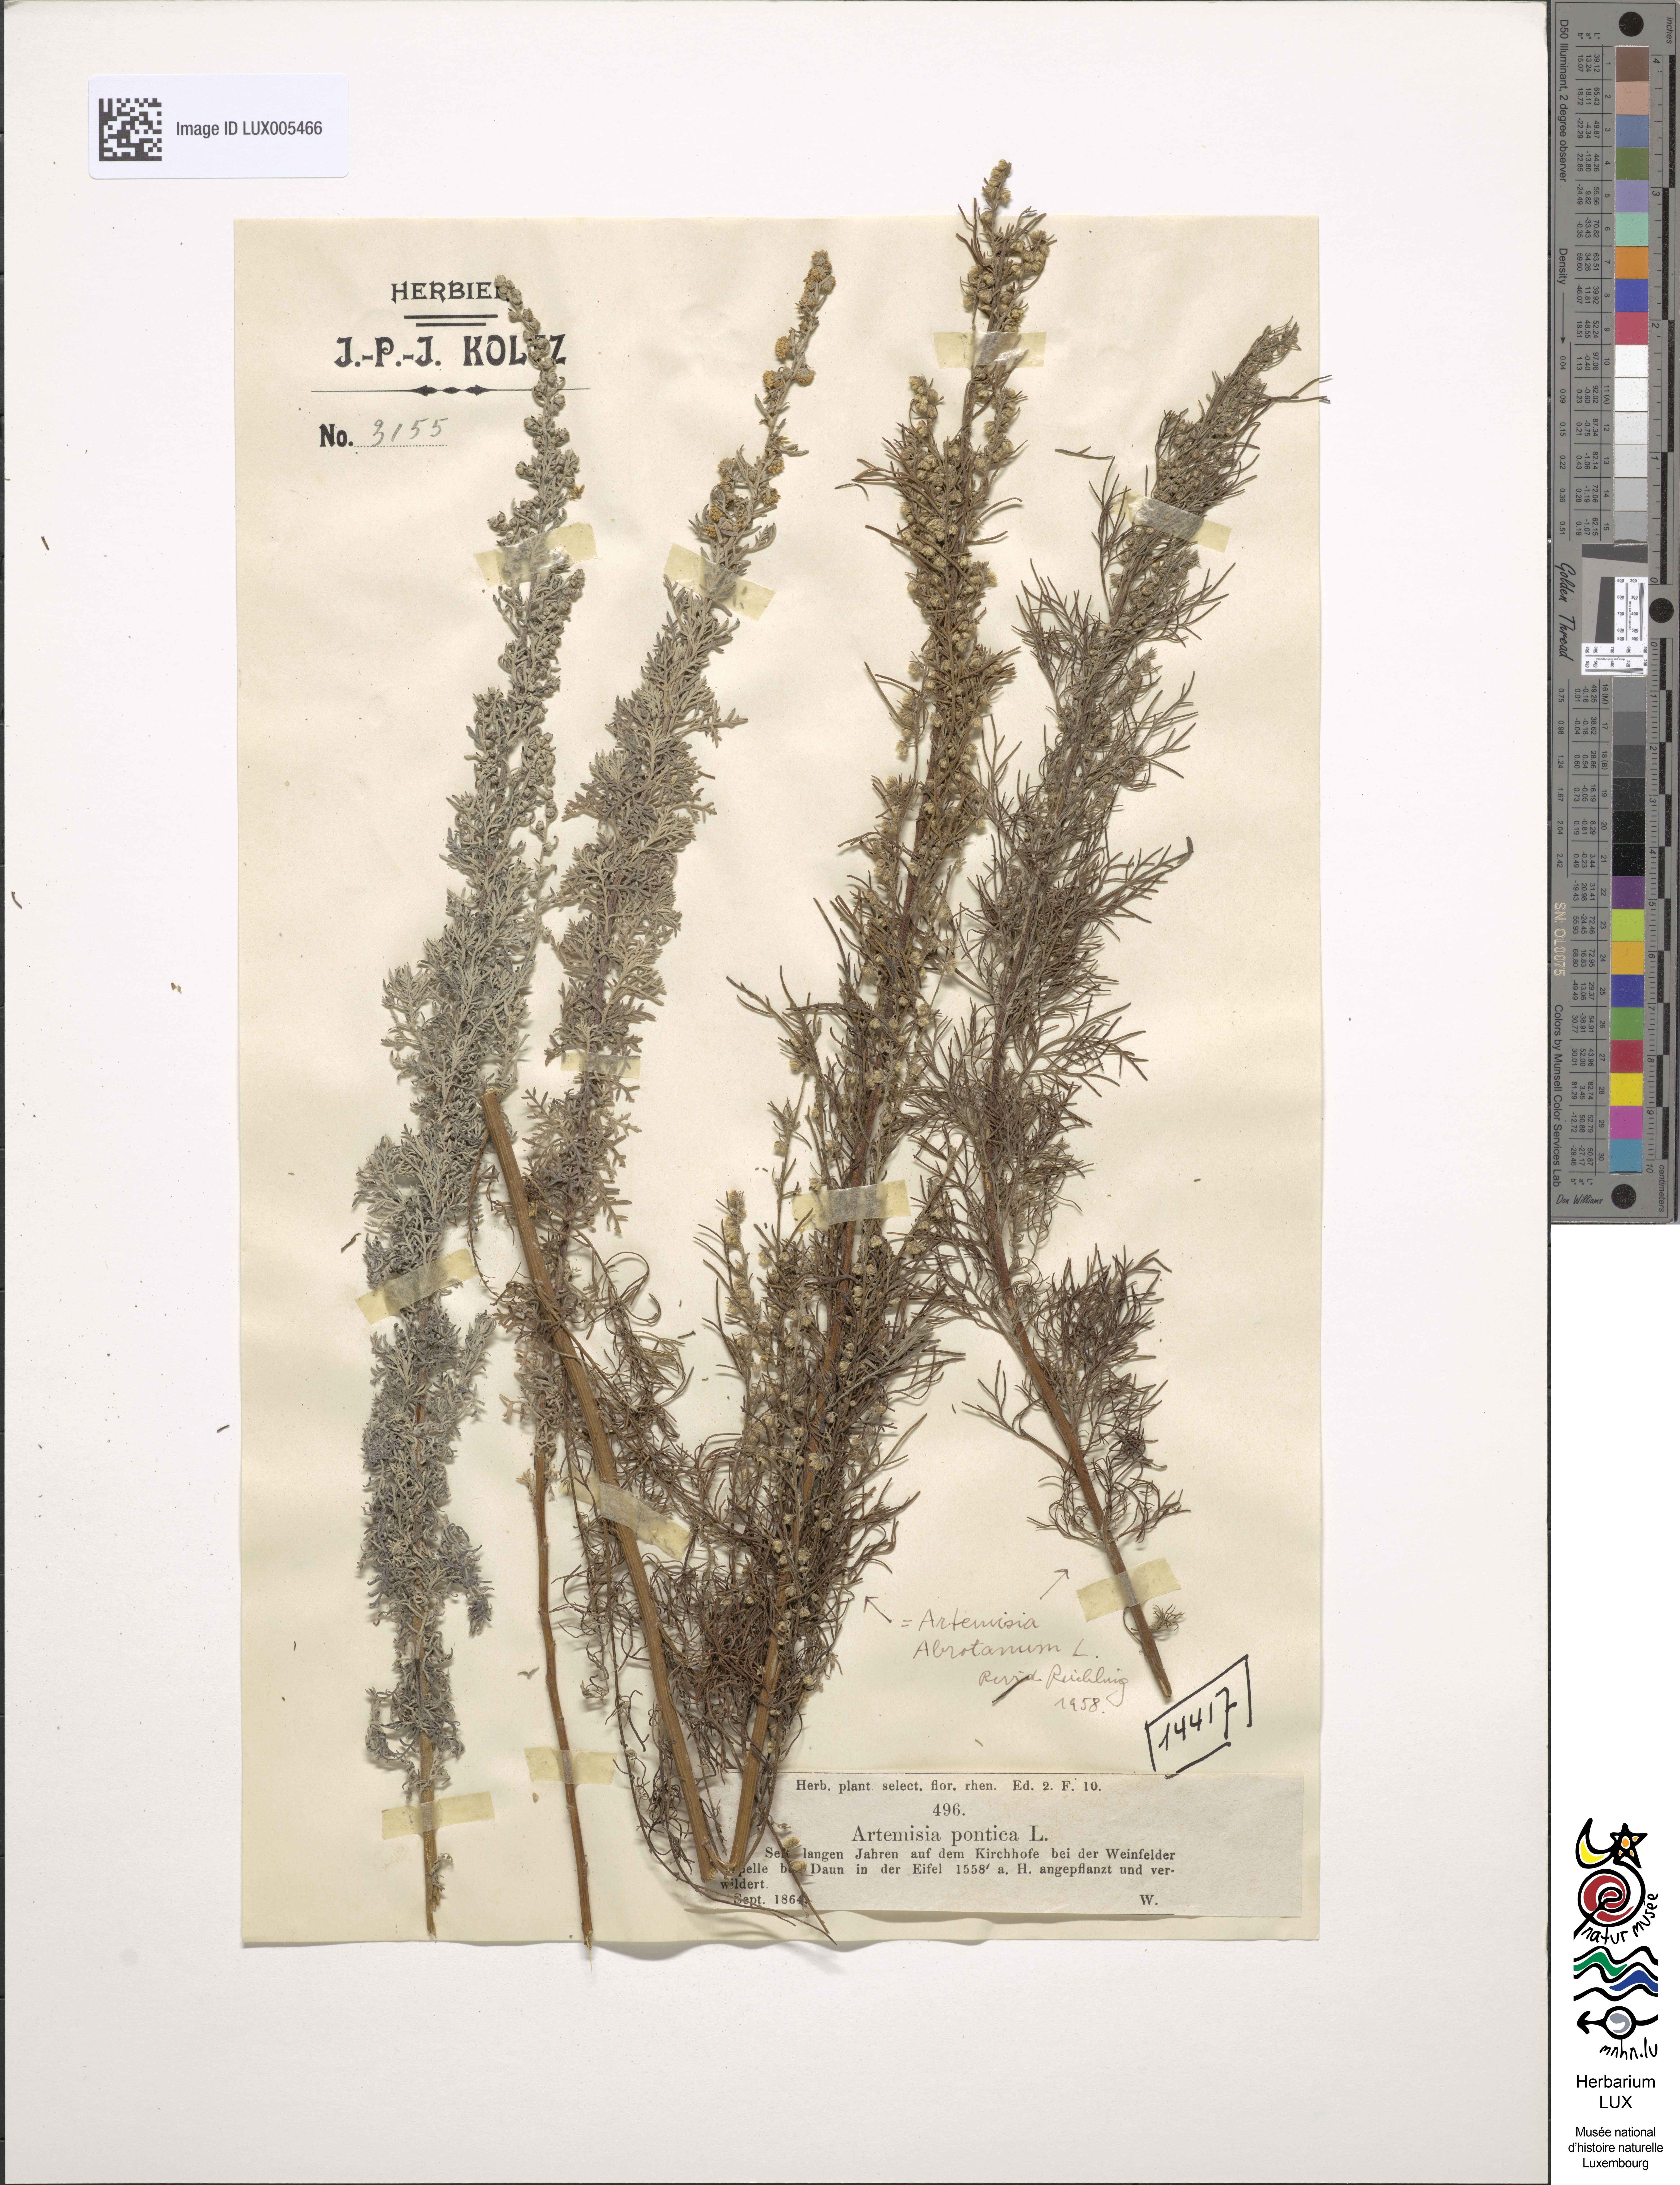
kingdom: Plantae
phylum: Tracheophyta
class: Magnoliopsida
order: Asterales
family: Asteraceae
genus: Artemisia
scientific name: Artemisia abrotanum
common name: Southernwood
